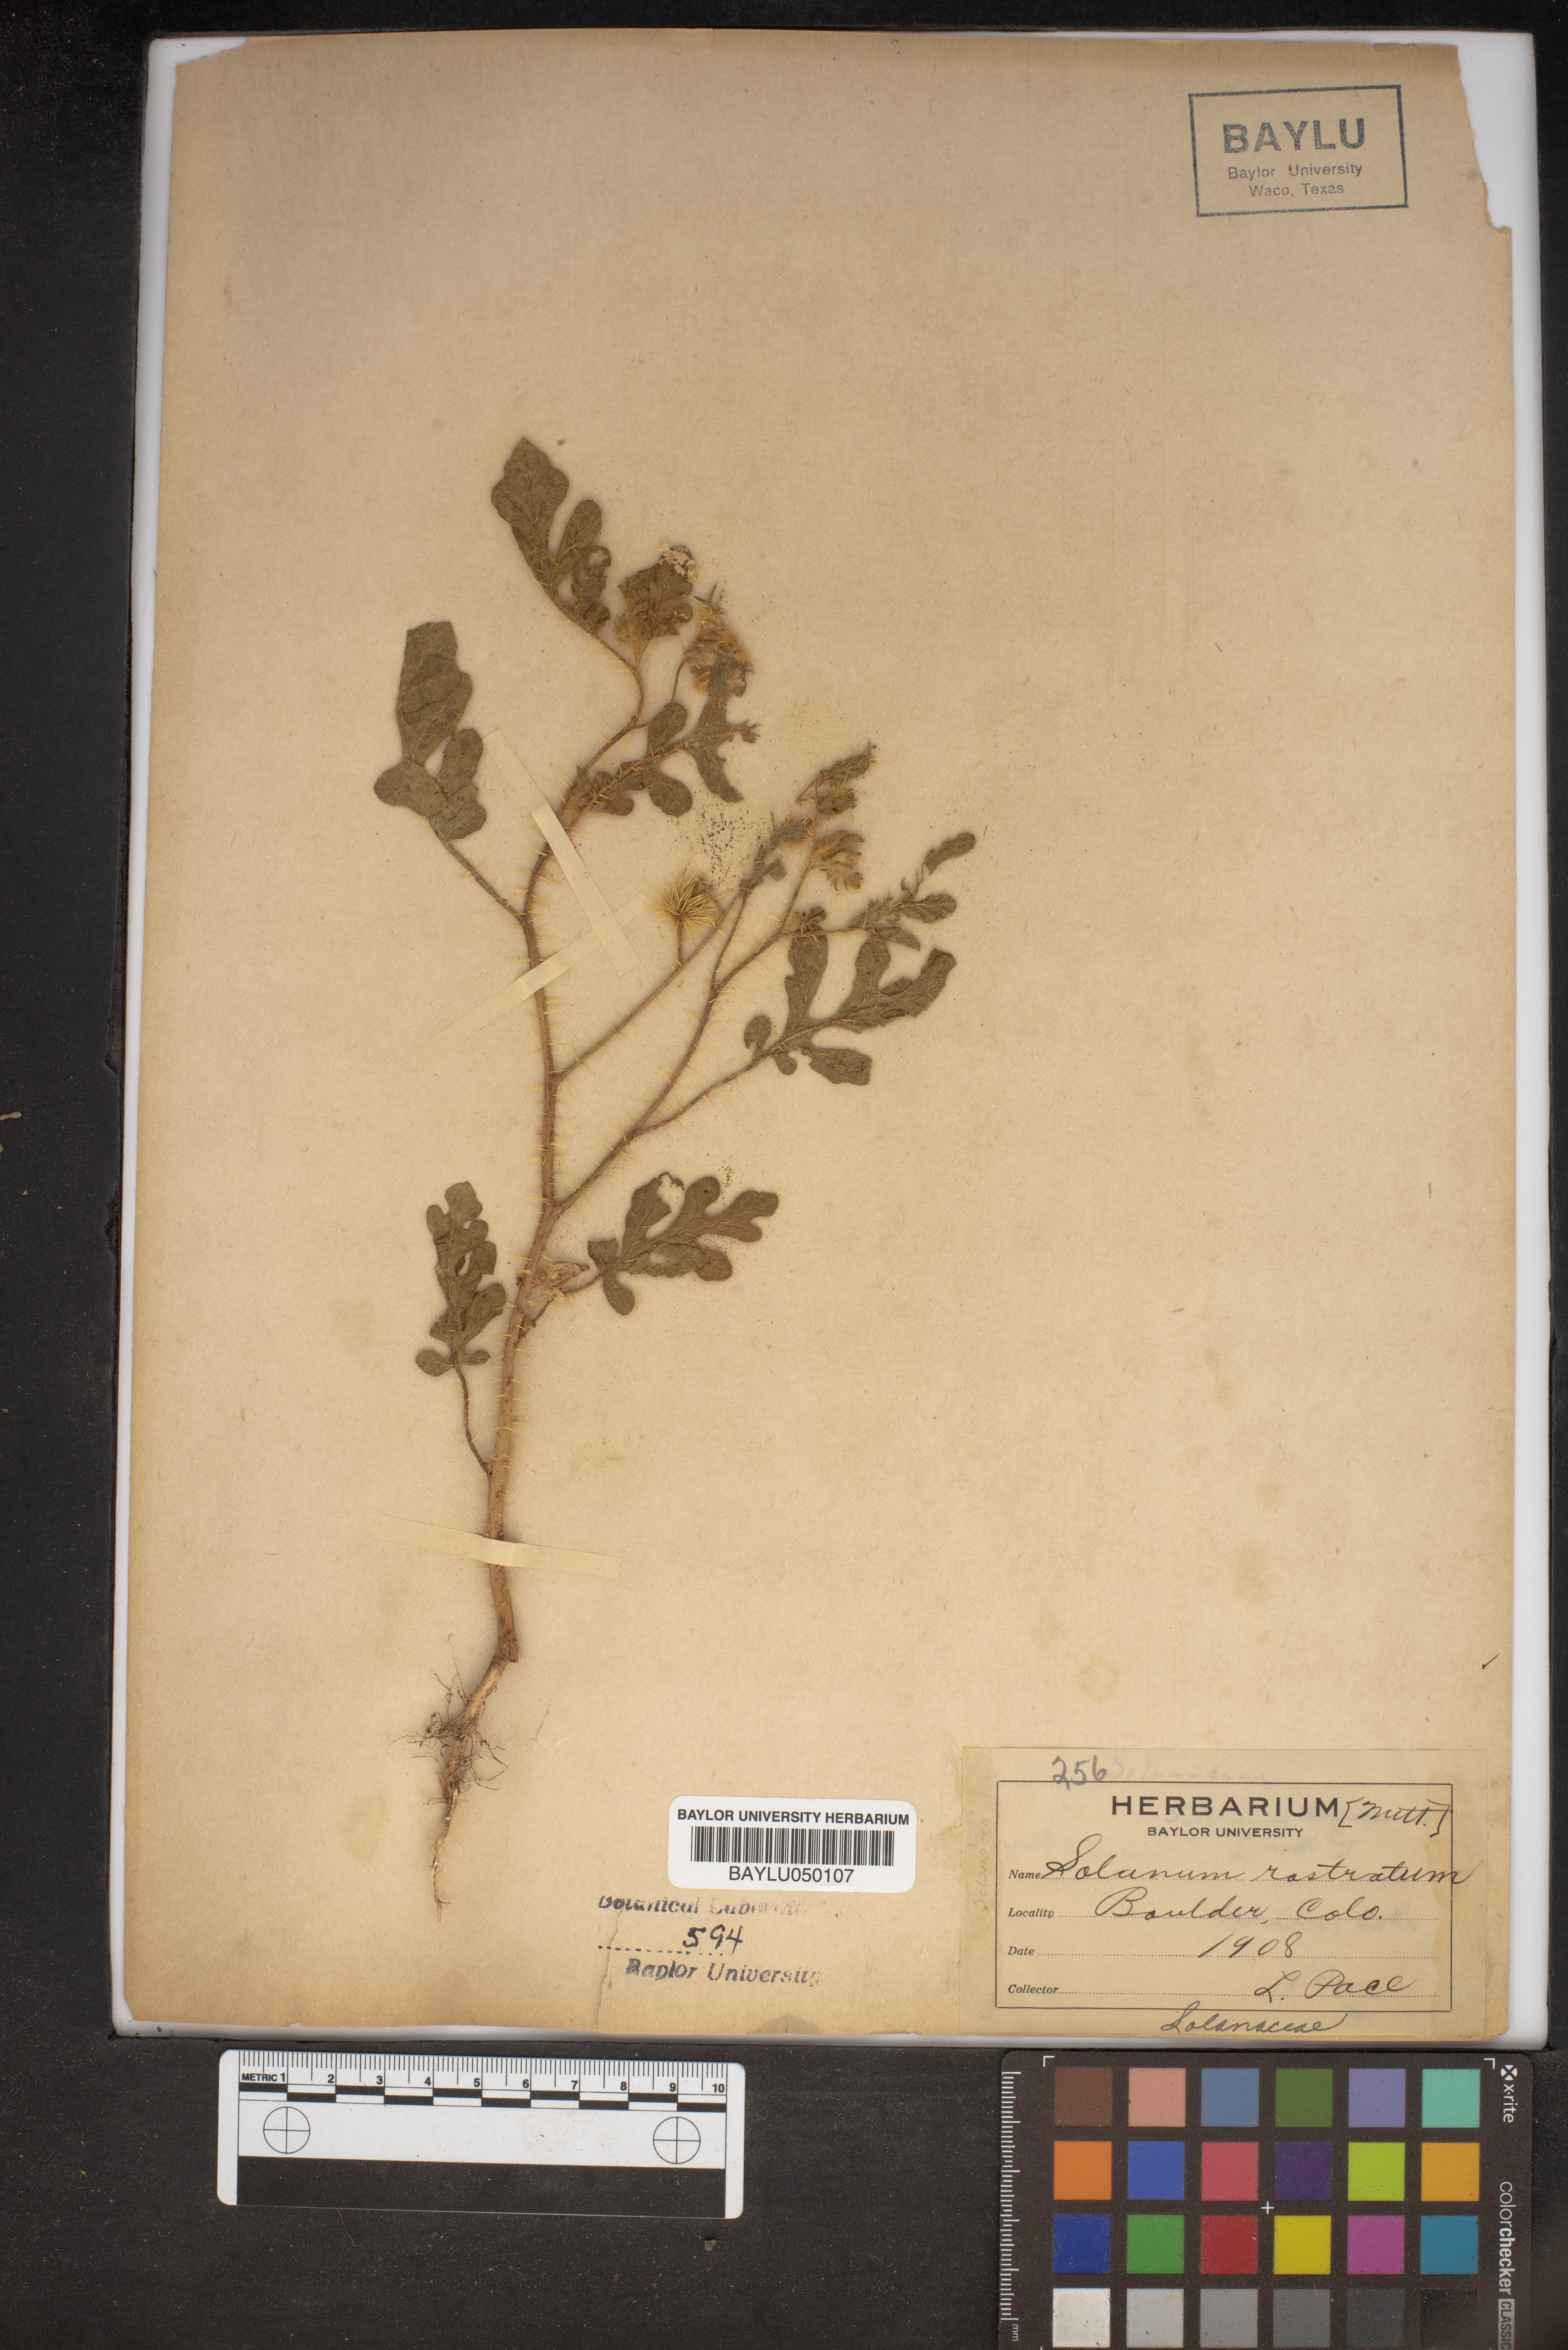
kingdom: Plantae
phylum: Tracheophyta
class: Magnoliopsida
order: Solanales
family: Solanaceae
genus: Solanum
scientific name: Solanum angustifolium
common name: Buffalobur nightshade
